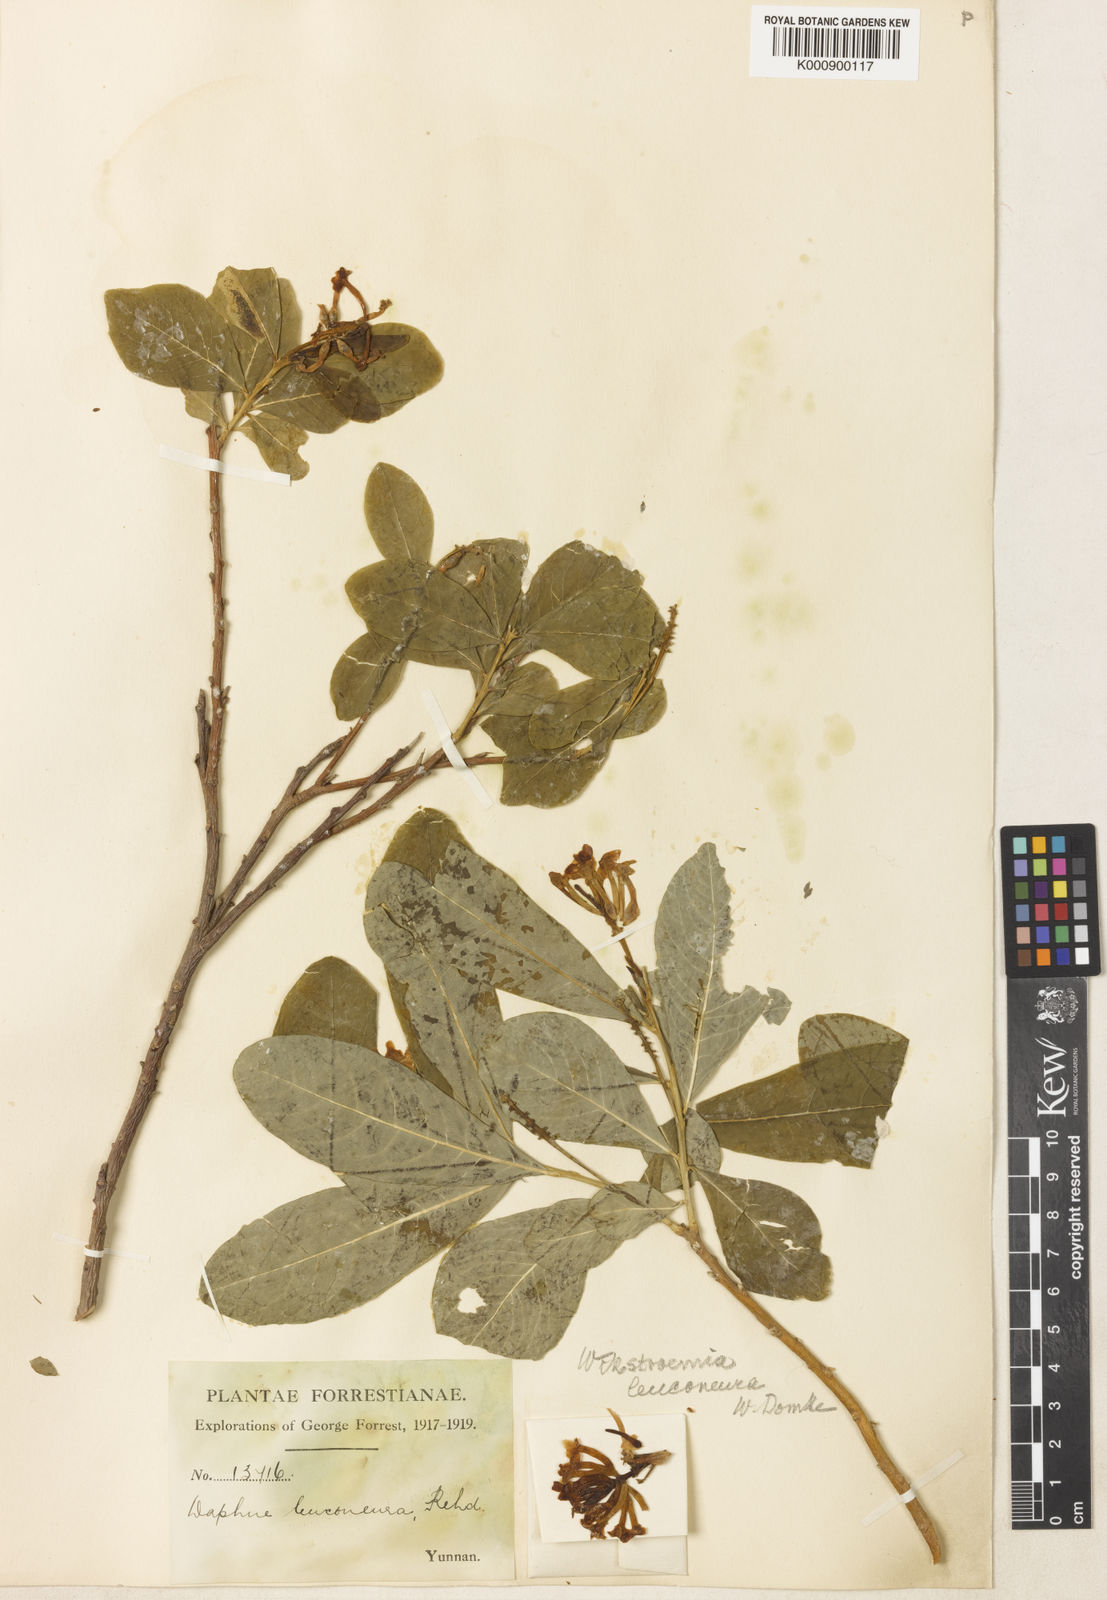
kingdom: Plantae
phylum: Tracheophyta
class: Magnoliopsida
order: Malvales
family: Thymelaeaceae
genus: Wikstroemia
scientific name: Wikstroemia leuconeura
